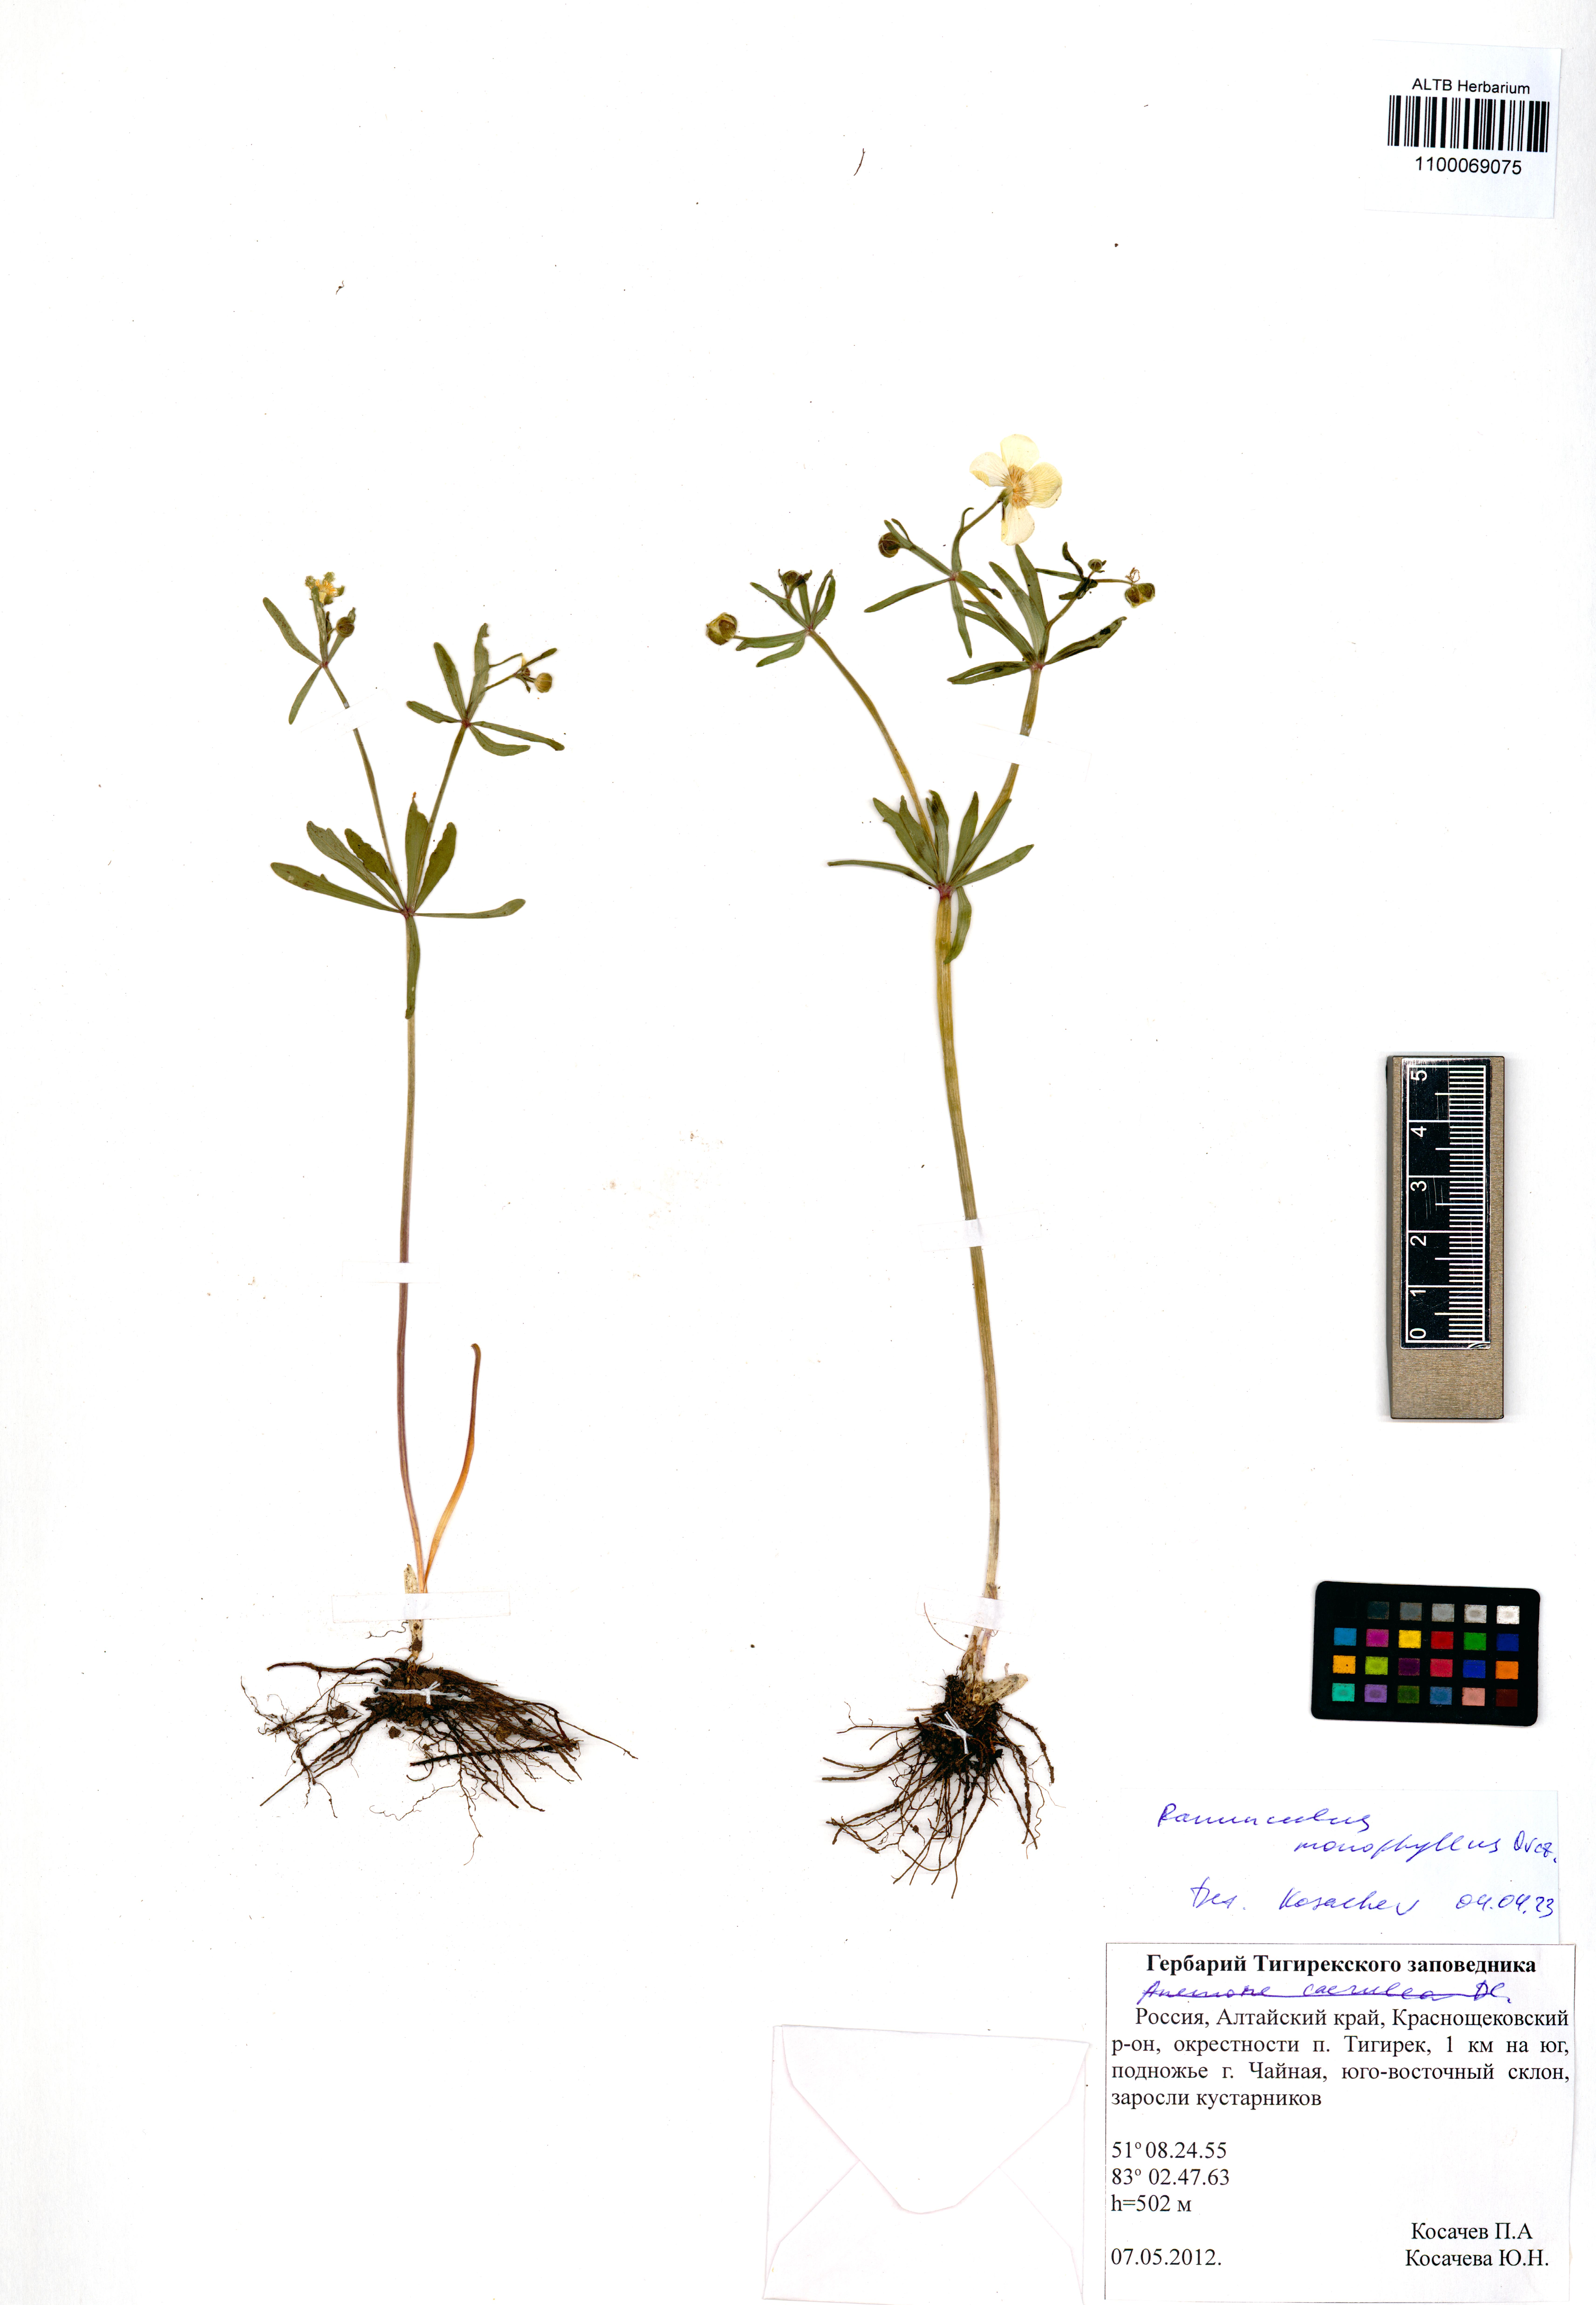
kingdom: Plantae
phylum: Tracheophyta
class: Magnoliopsida
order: Ranunculales
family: Ranunculaceae
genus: Ranunculus
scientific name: Ranunculus monophyllus
